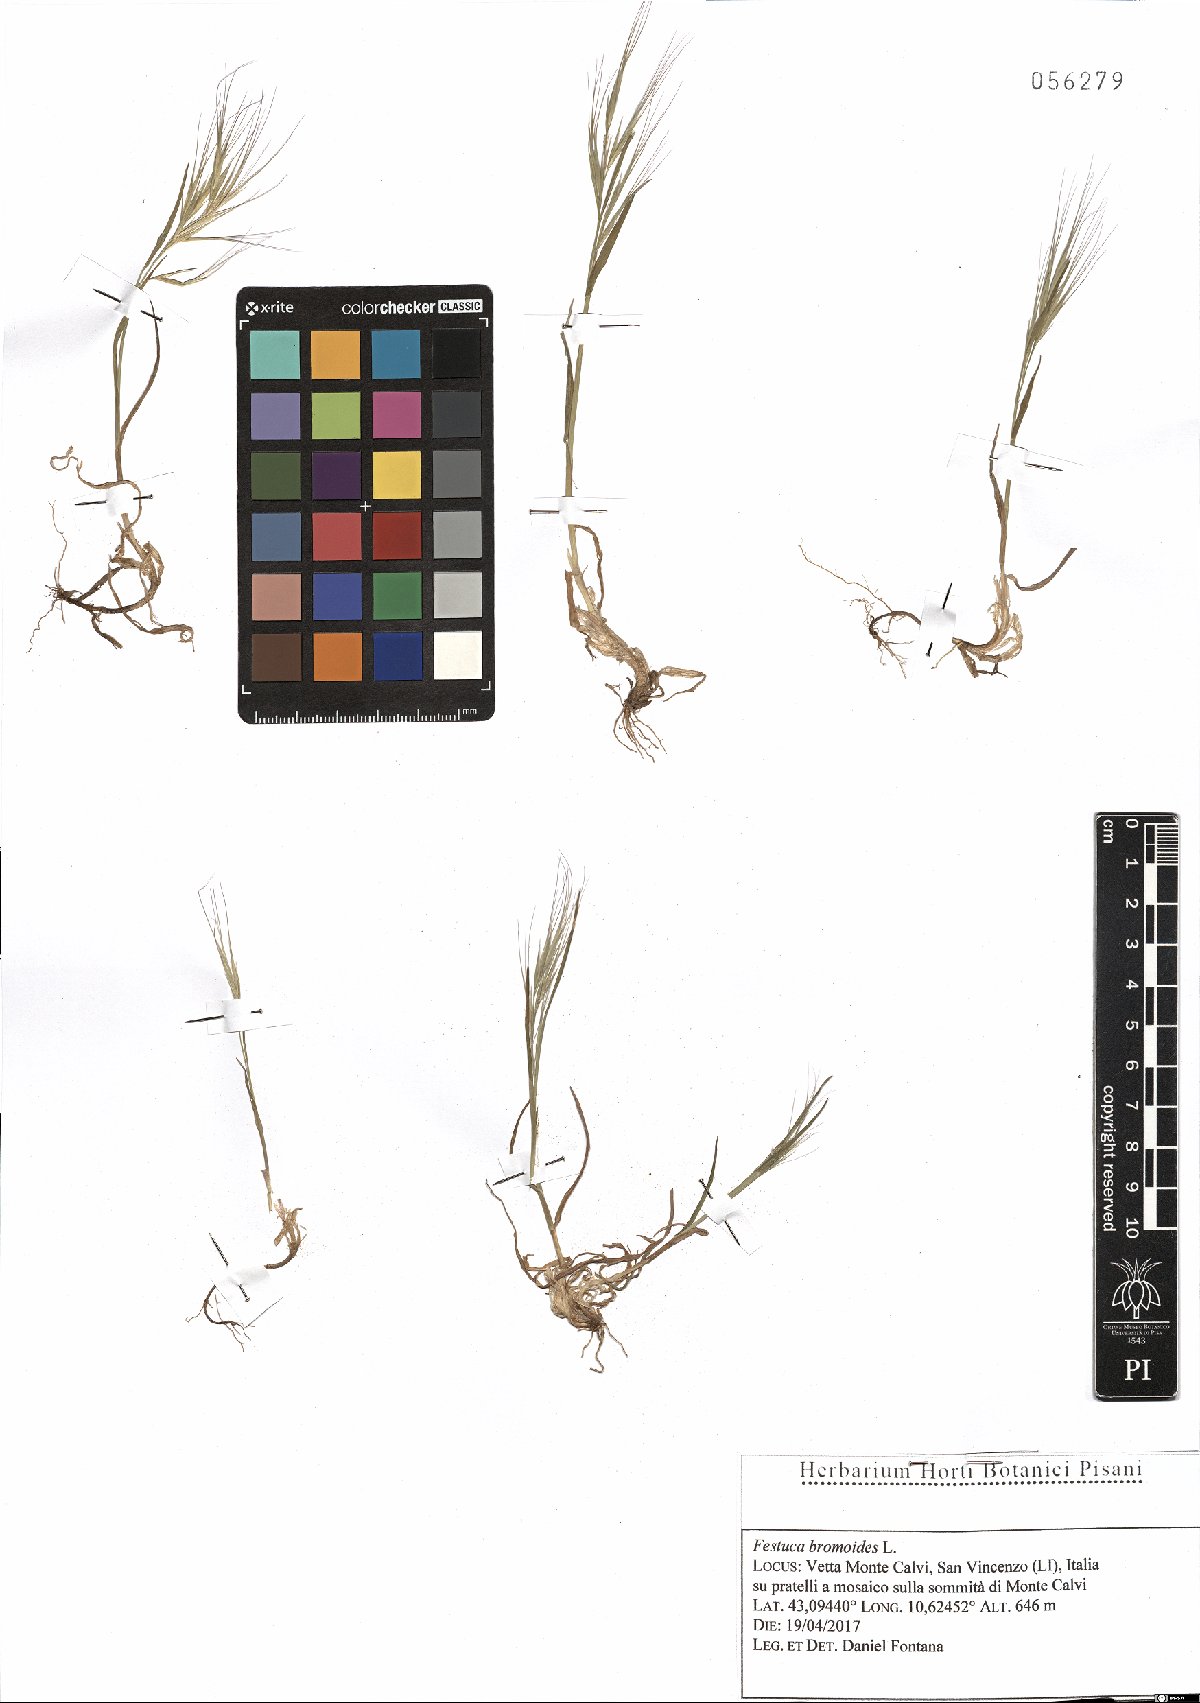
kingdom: Plantae
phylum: Tracheophyta
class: Liliopsida
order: Poales
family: Poaceae
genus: Festuca
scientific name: Festuca bromoides
